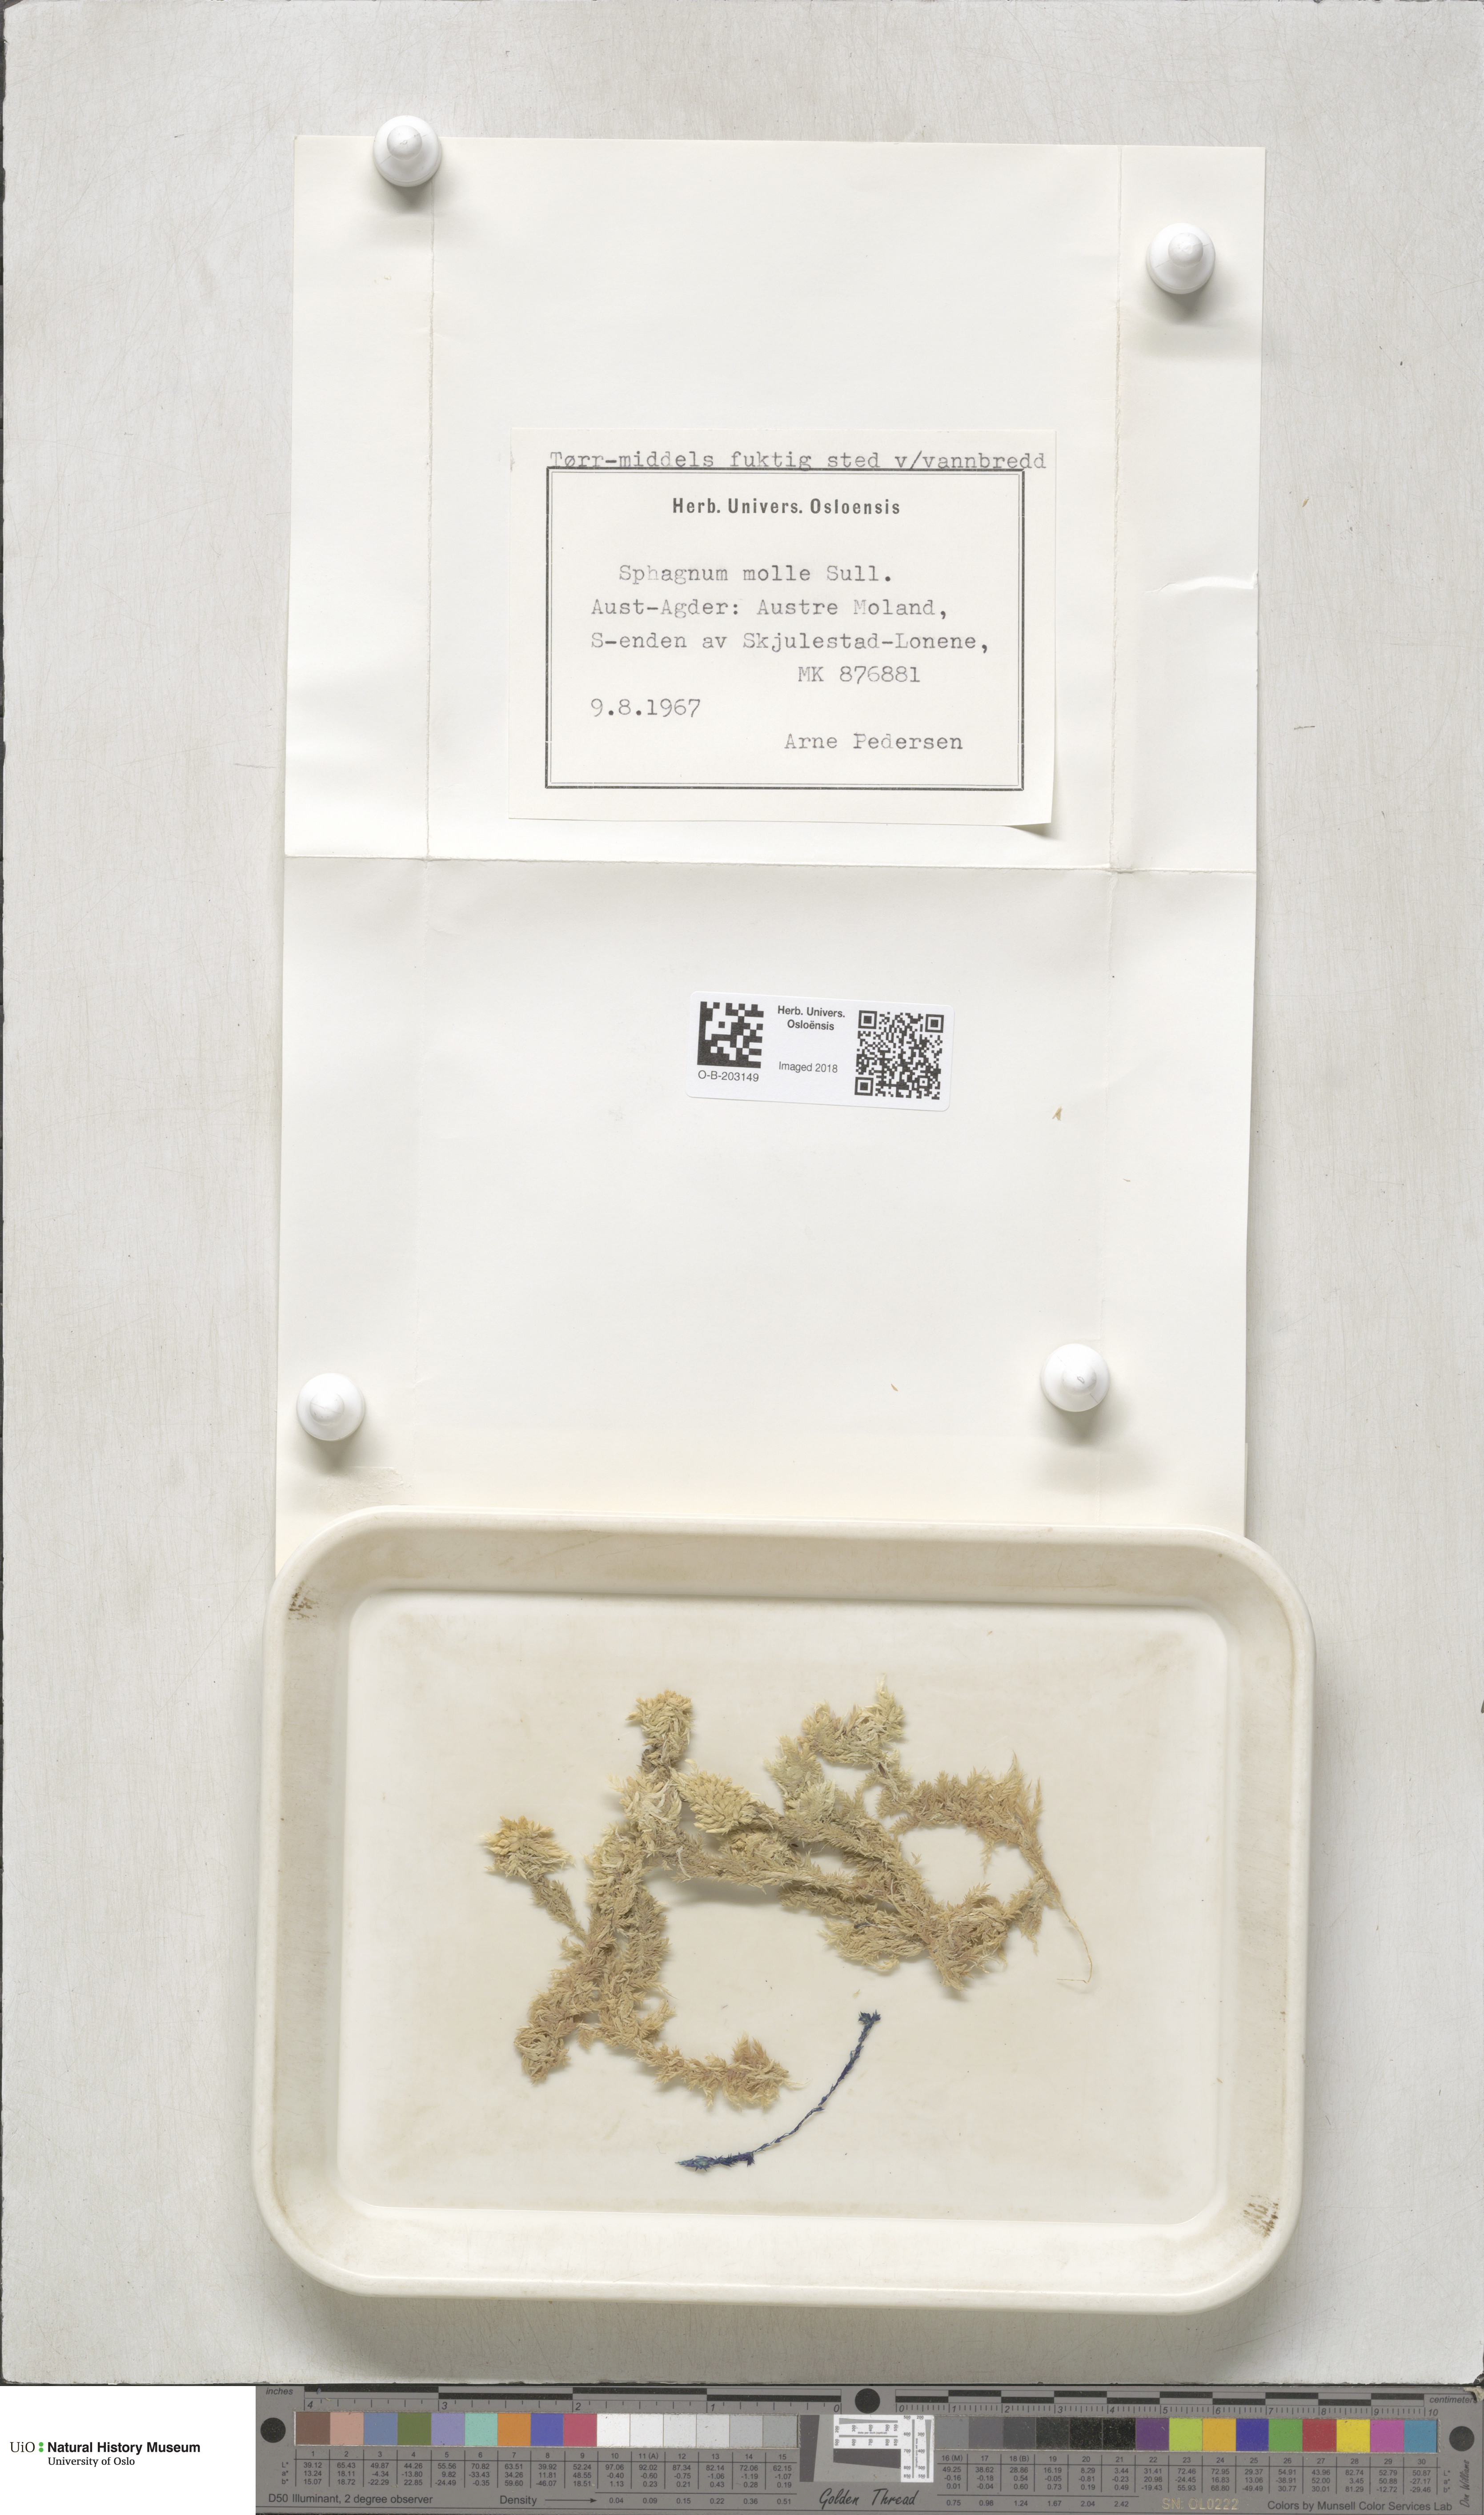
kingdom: Plantae
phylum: Bryophyta
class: Sphagnopsida
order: Sphagnales
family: Sphagnaceae
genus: Sphagnum
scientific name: Sphagnum molle
